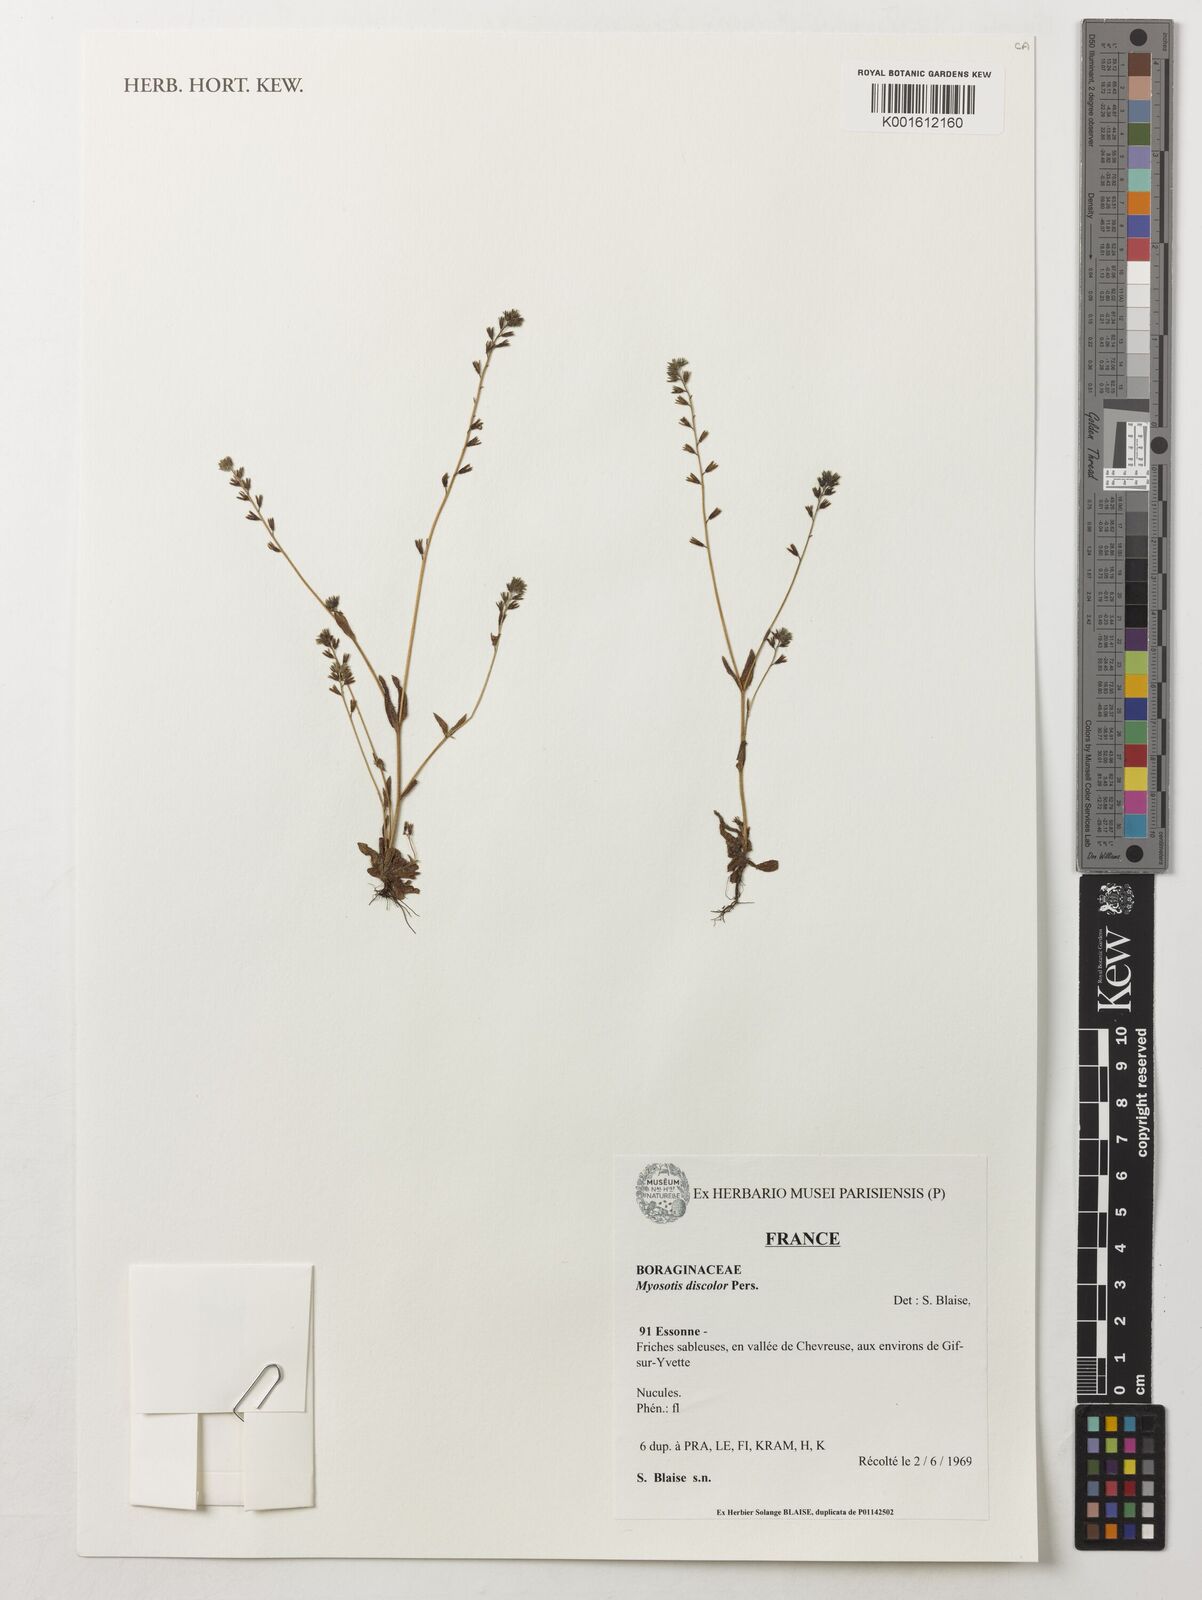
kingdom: Plantae
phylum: Tracheophyta
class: Magnoliopsida
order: Boraginales
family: Boraginaceae
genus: Myosotis
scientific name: Myosotis discolor
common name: Changing forget-me-not
